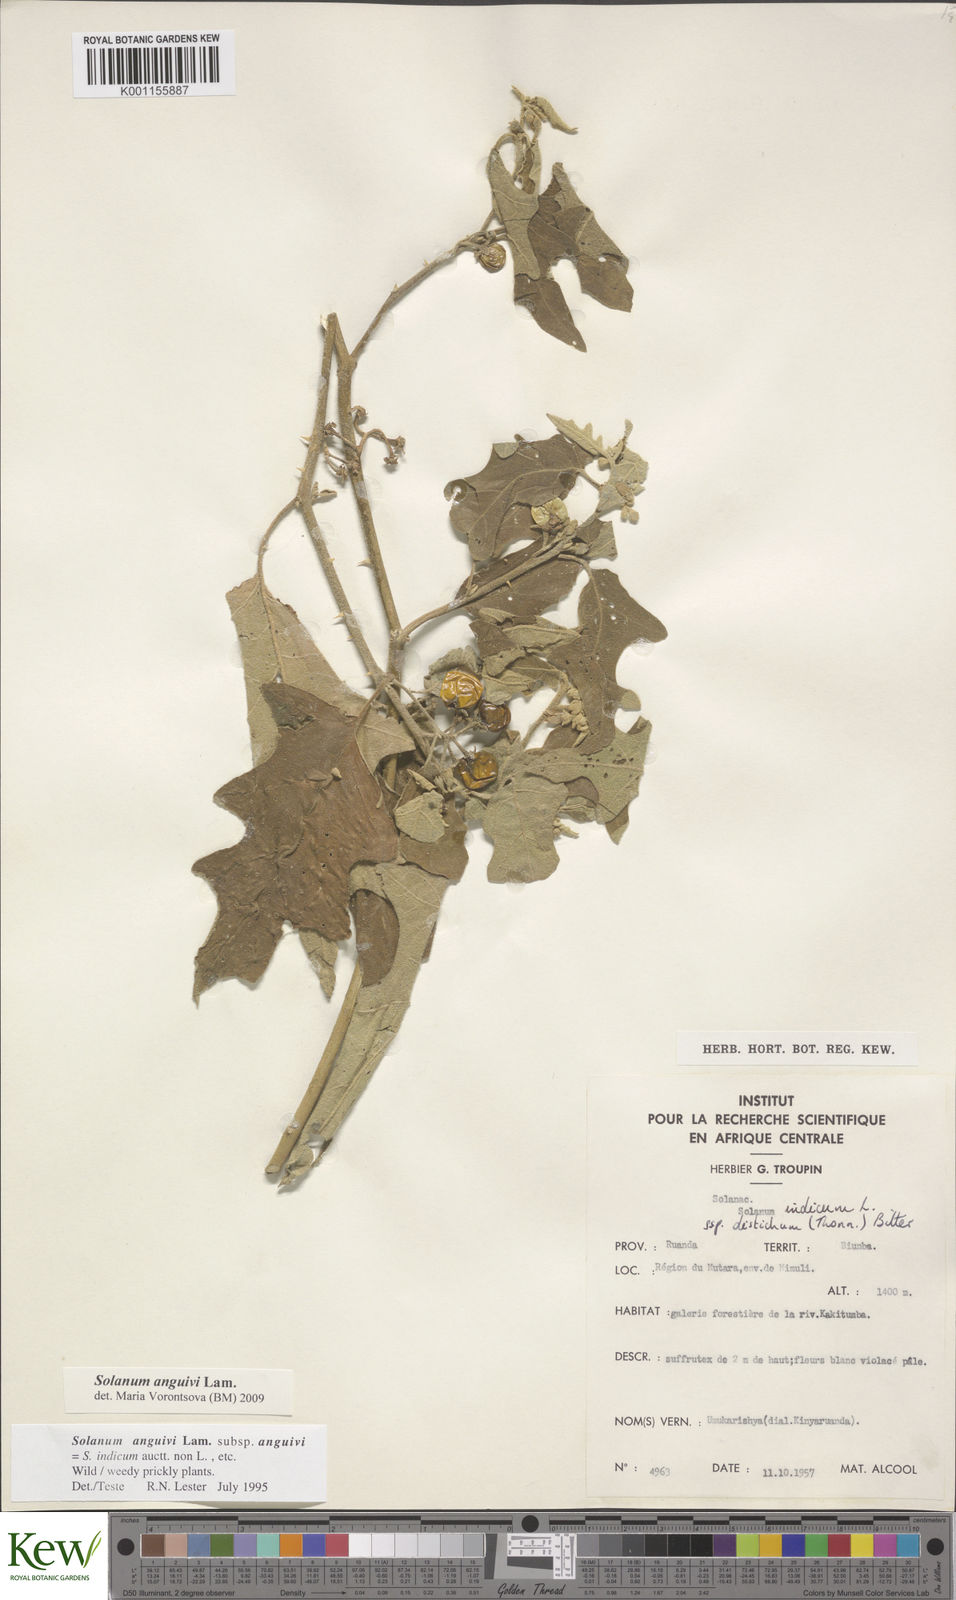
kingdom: Plantae
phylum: Tracheophyta
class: Magnoliopsida
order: Solanales
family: Solanaceae
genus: Solanum
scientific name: Solanum anguivi
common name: Forest bitterberry
